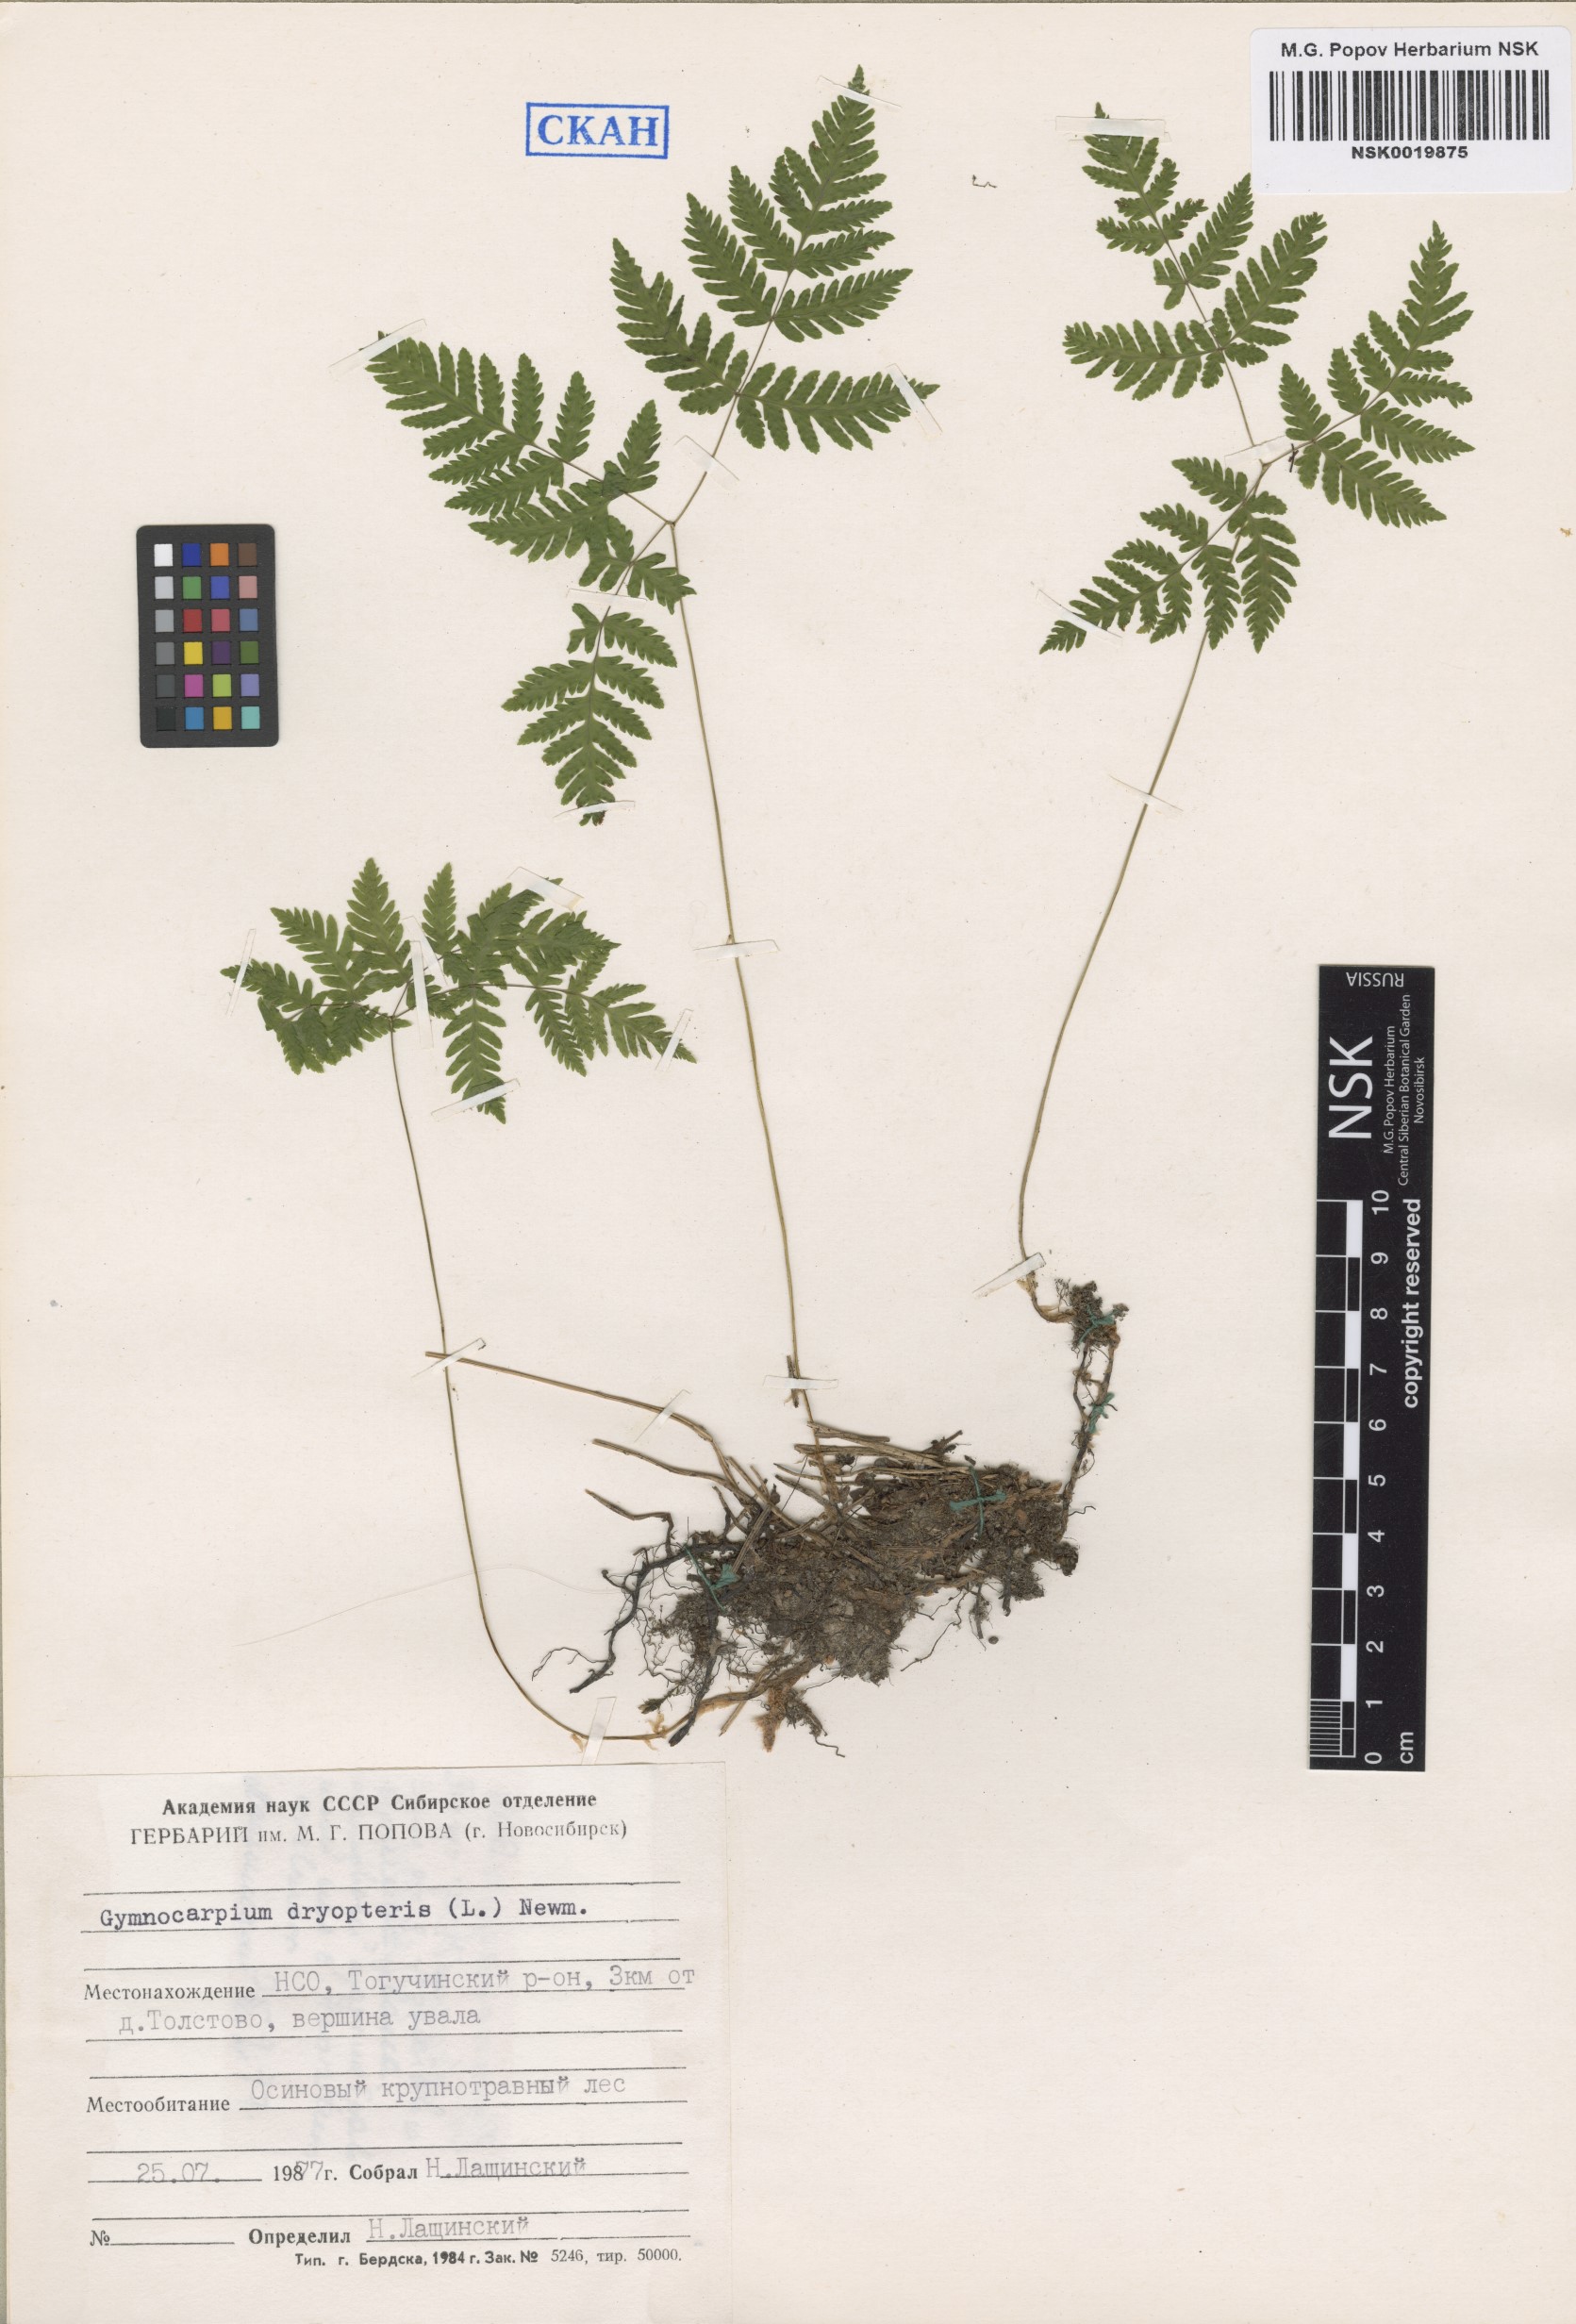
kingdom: Plantae
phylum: Tracheophyta
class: Polypodiopsida
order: Polypodiales
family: Cystopteridaceae
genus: Gymnocarpium
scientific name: Gymnocarpium dryopteris
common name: Oak fern
